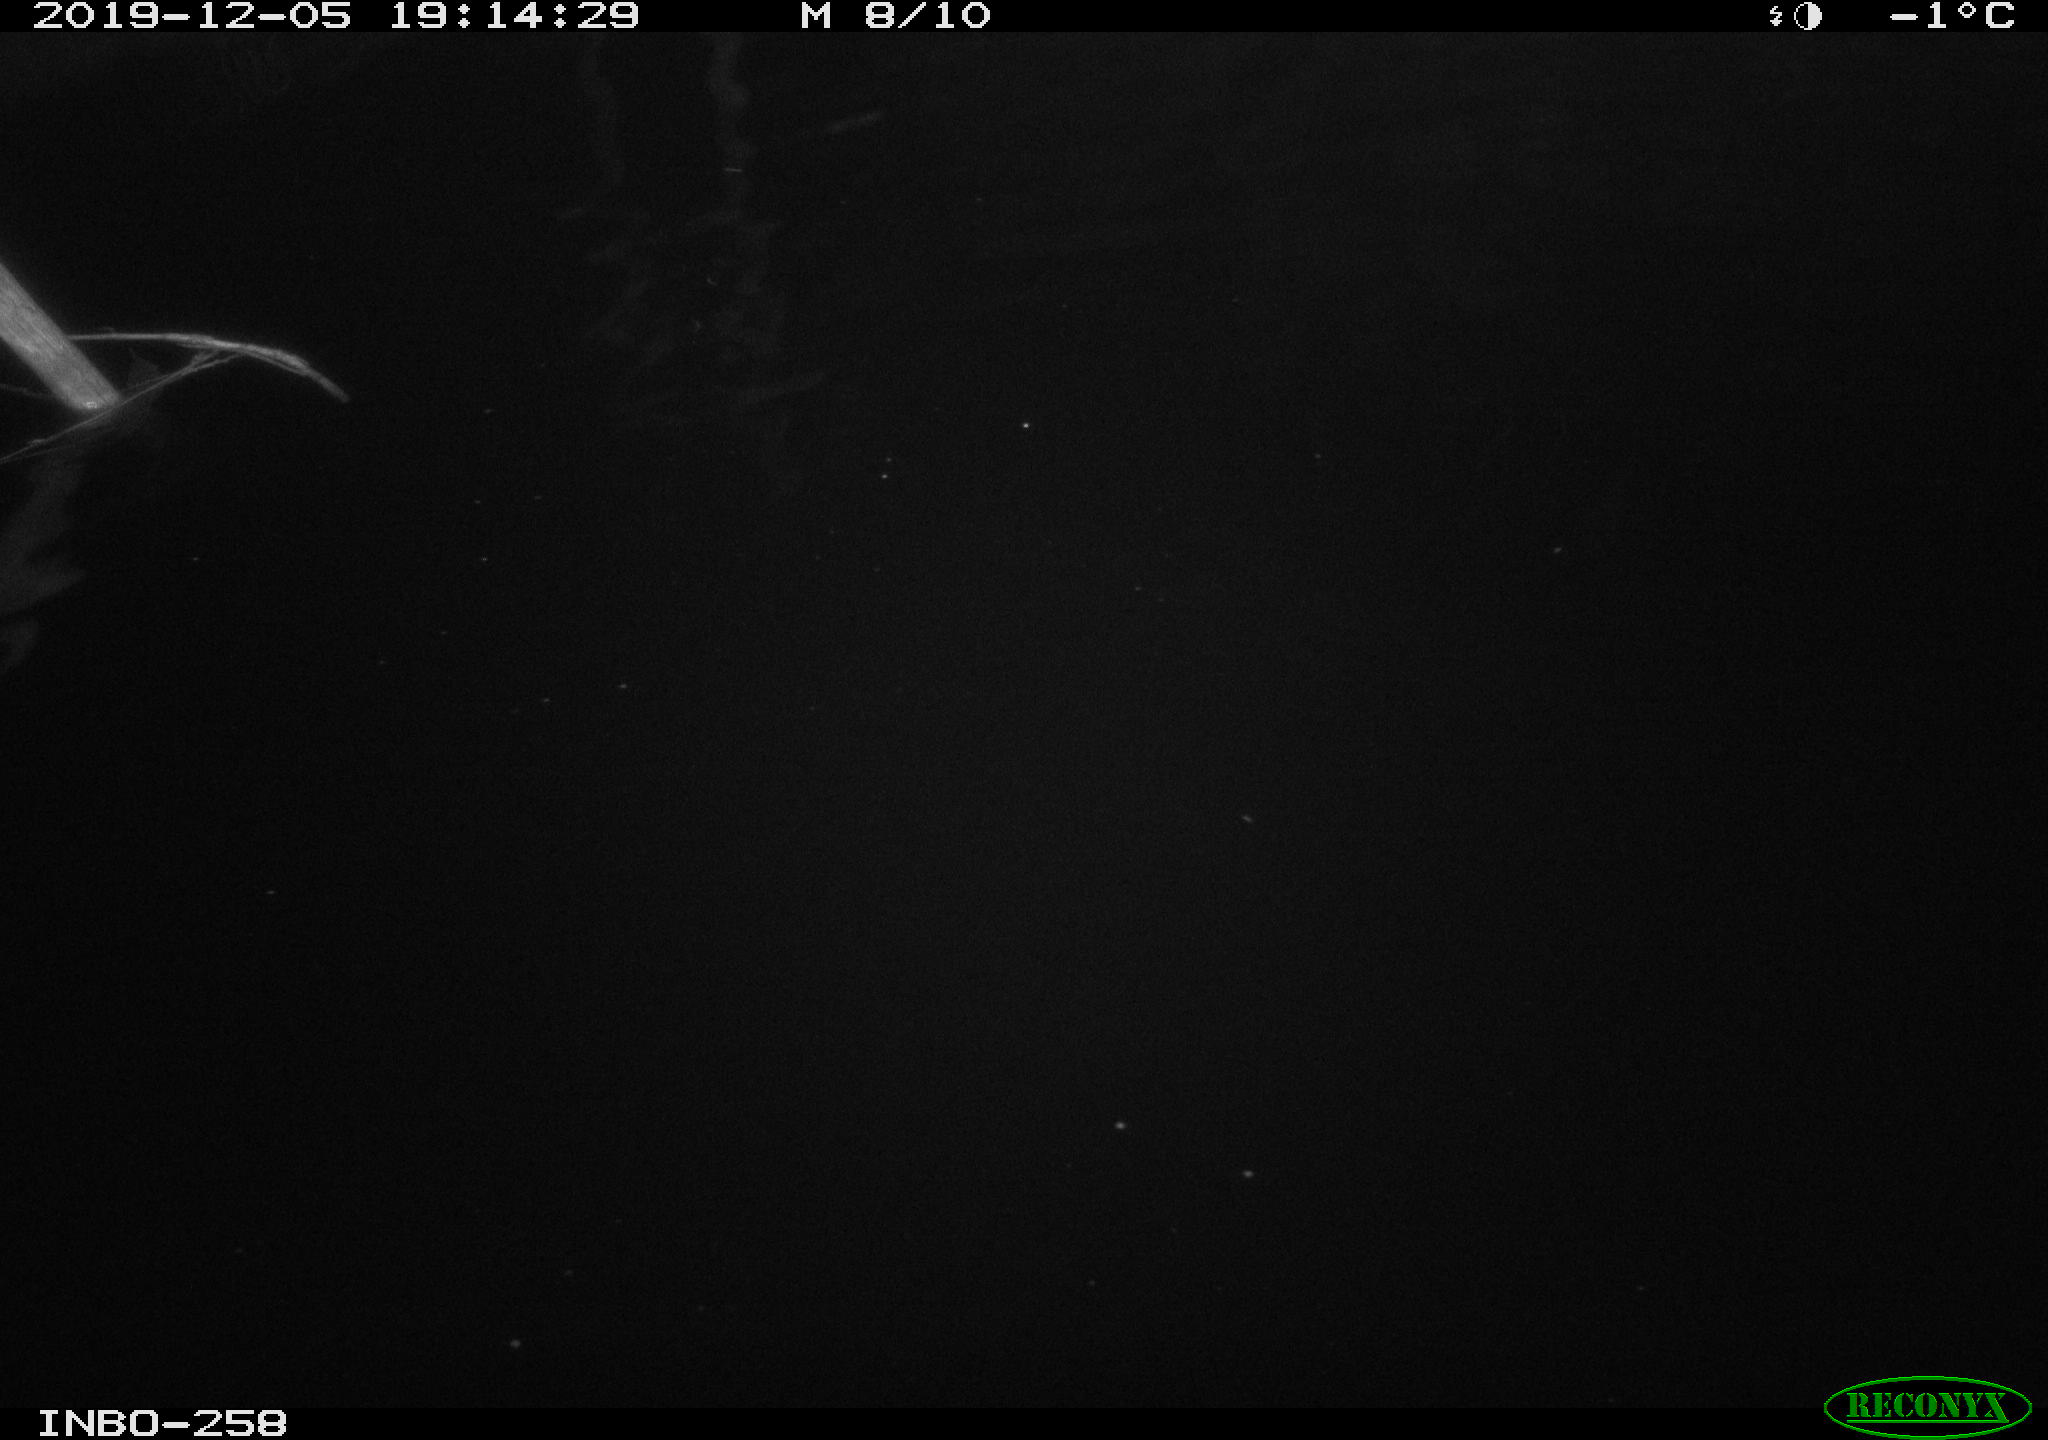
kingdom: Animalia
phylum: Chordata
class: Aves
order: Anseriformes
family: Anatidae
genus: Anas
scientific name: Anas platyrhynchos
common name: Mallard
